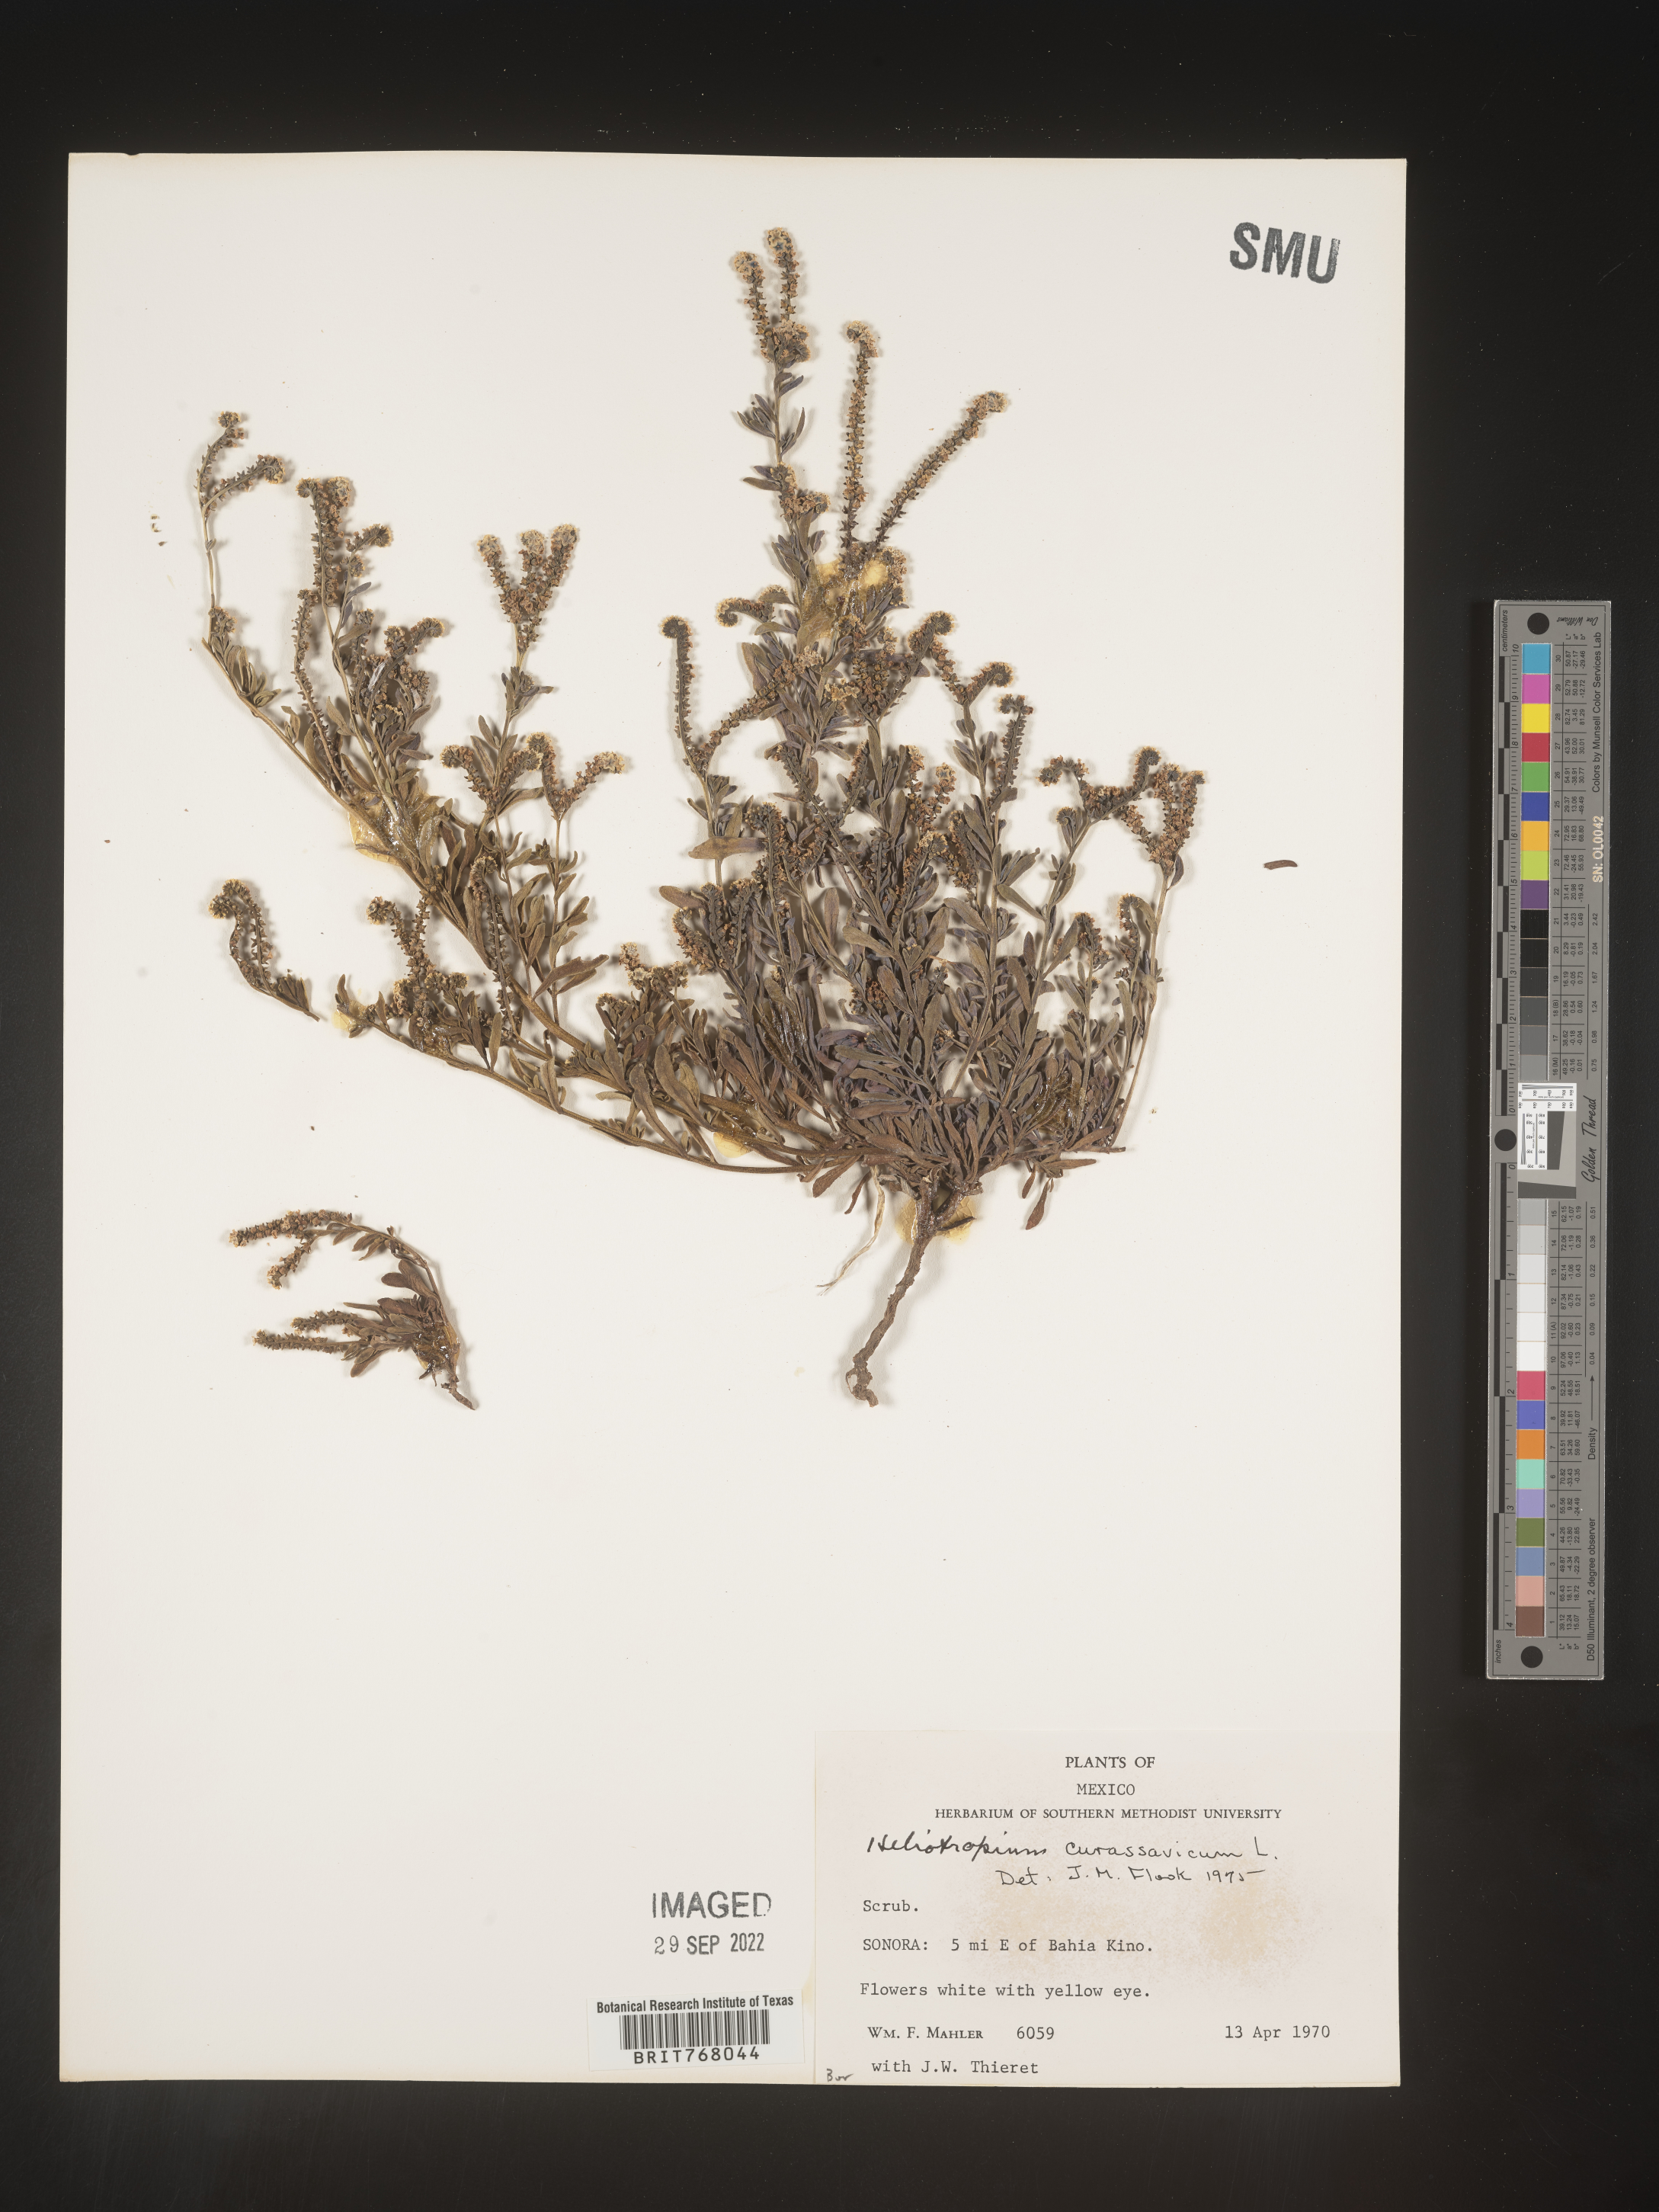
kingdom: Plantae
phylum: Tracheophyta
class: Magnoliopsida
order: Boraginales
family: Heliotropiaceae
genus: Heliotropium
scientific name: Heliotropium curassavicum
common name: Seaside heliotrope
